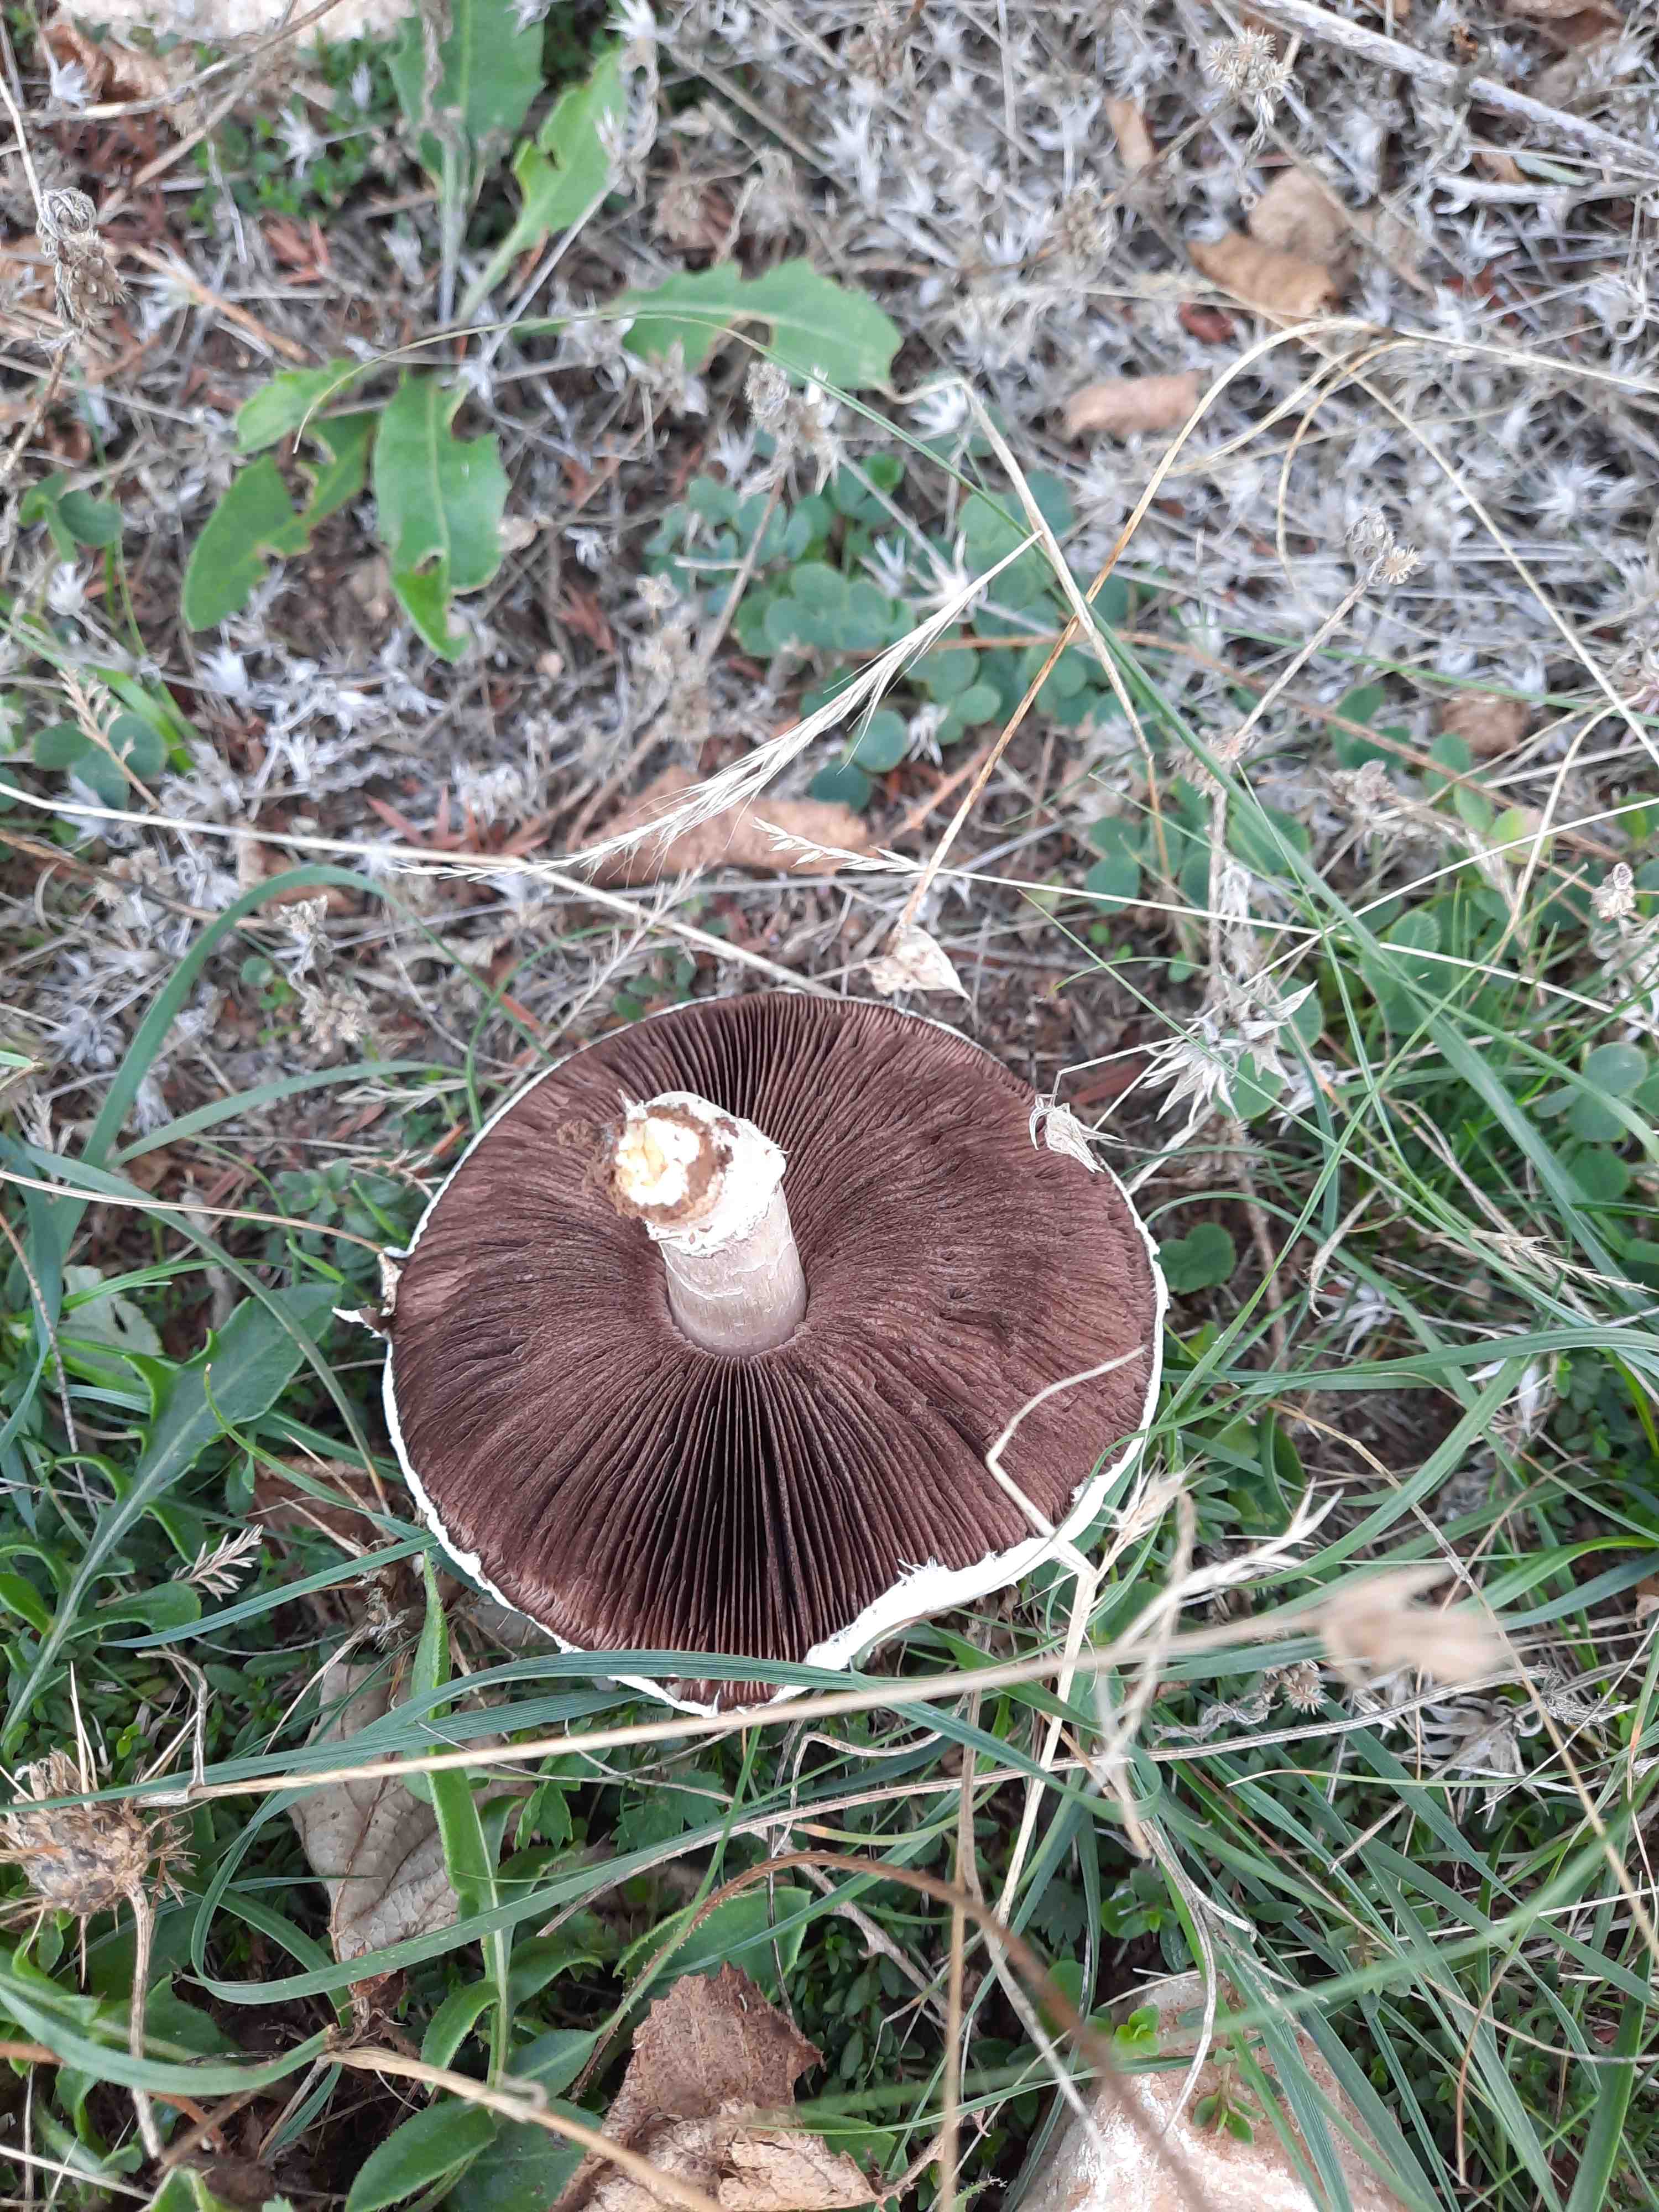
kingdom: Fungi
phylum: Basidiomycota
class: Agaricomycetes
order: Agaricales
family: Agaricaceae
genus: Agaricus
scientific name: Agaricus
